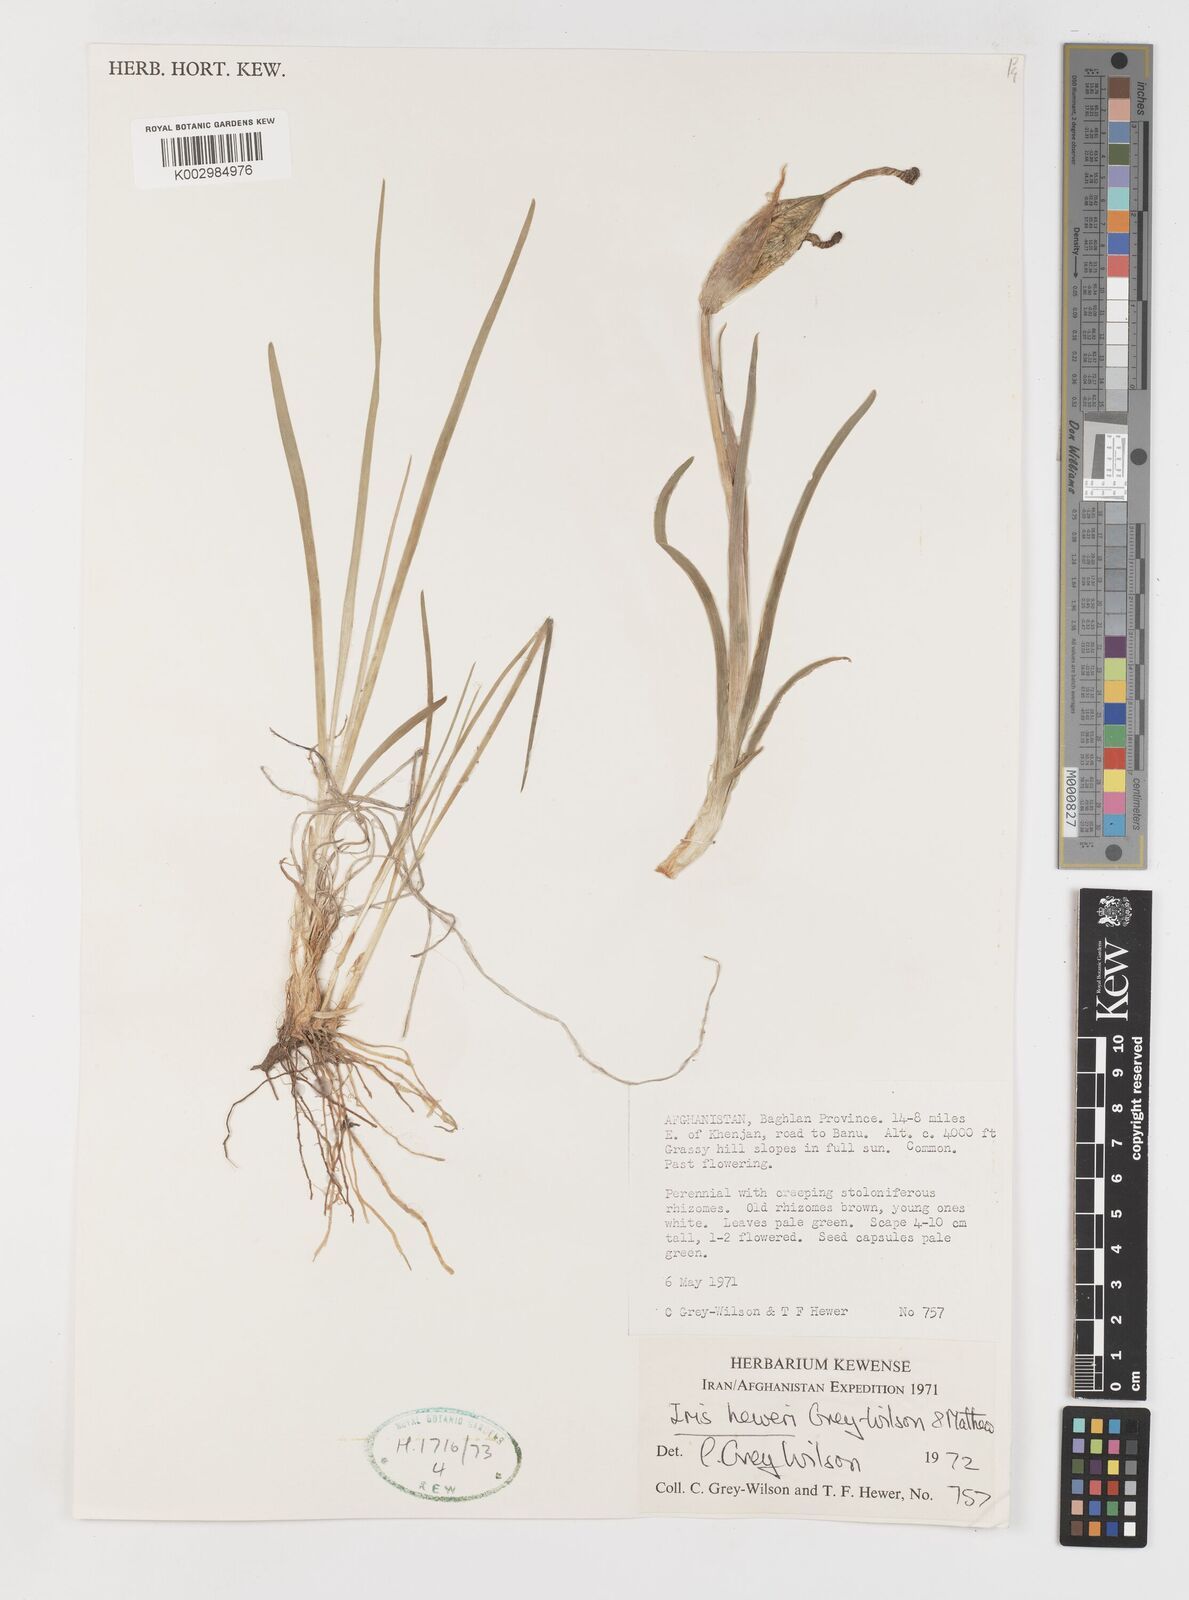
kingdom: Plantae
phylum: Tracheophyta
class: Liliopsida
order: Asparagales
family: Iridaceae
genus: Iris
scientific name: Iris heweri
